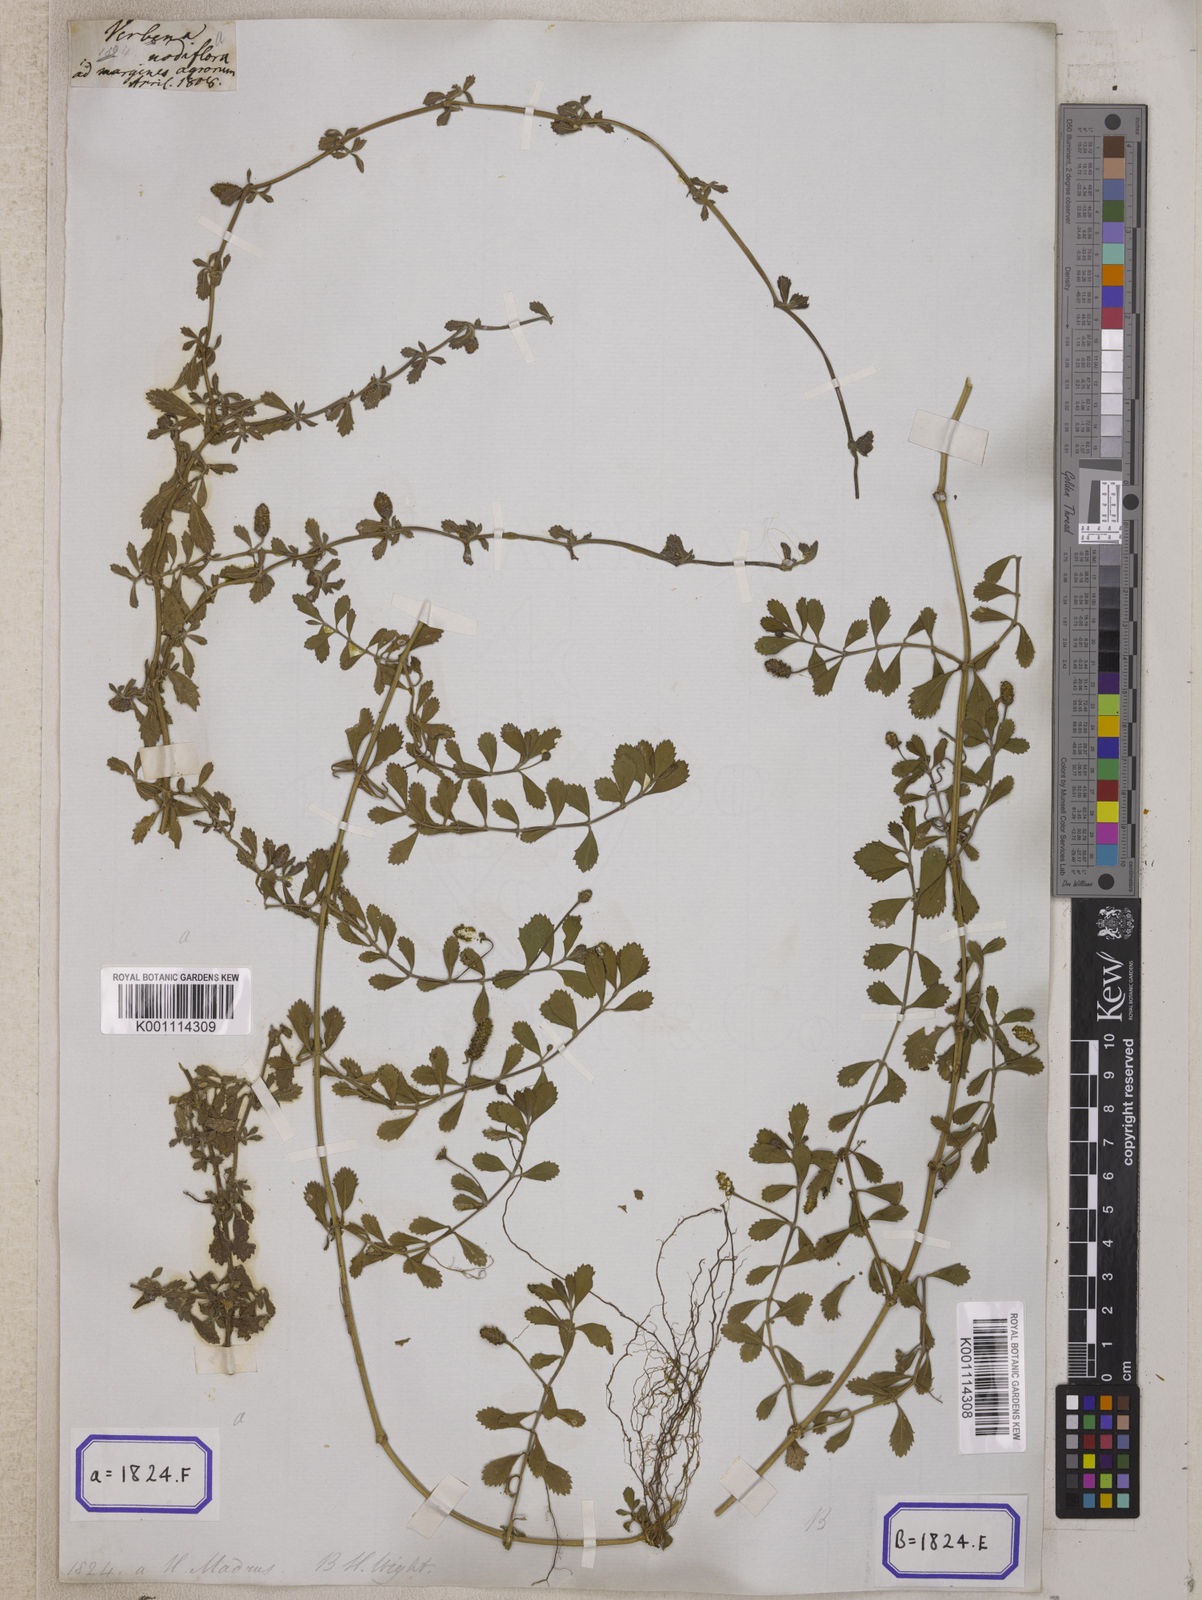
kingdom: Plantae
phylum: Tracheophyta
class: Magnoliopsida
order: Lamiales
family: Verbenaceae
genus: Phyla
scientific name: Phyla nodiflora
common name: Frogfruit
